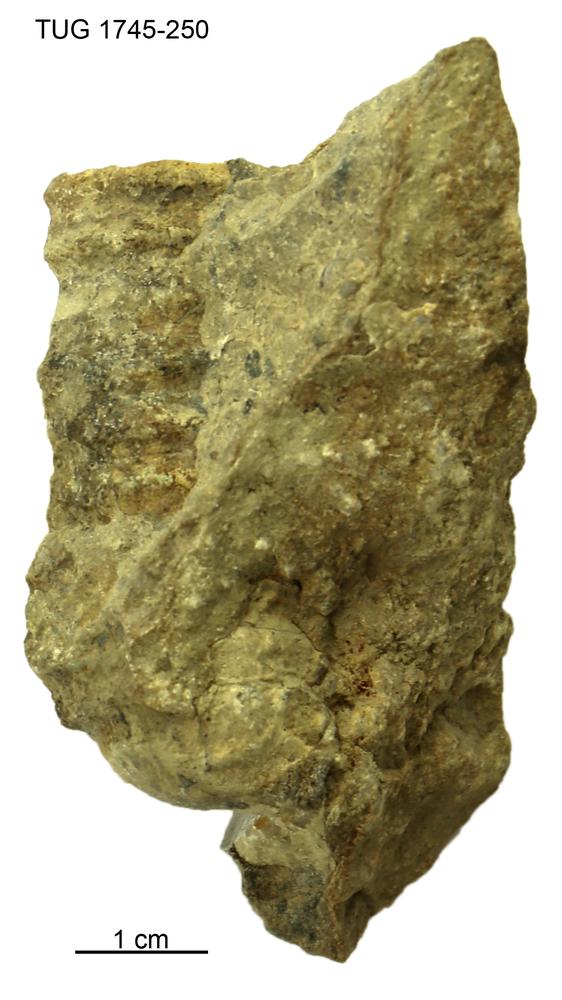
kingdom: Animalia
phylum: Mollusca
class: Cephalopoda
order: Orthocerida
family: Pseudorthoceratidae
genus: Spyroceras
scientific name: Spyroceras
